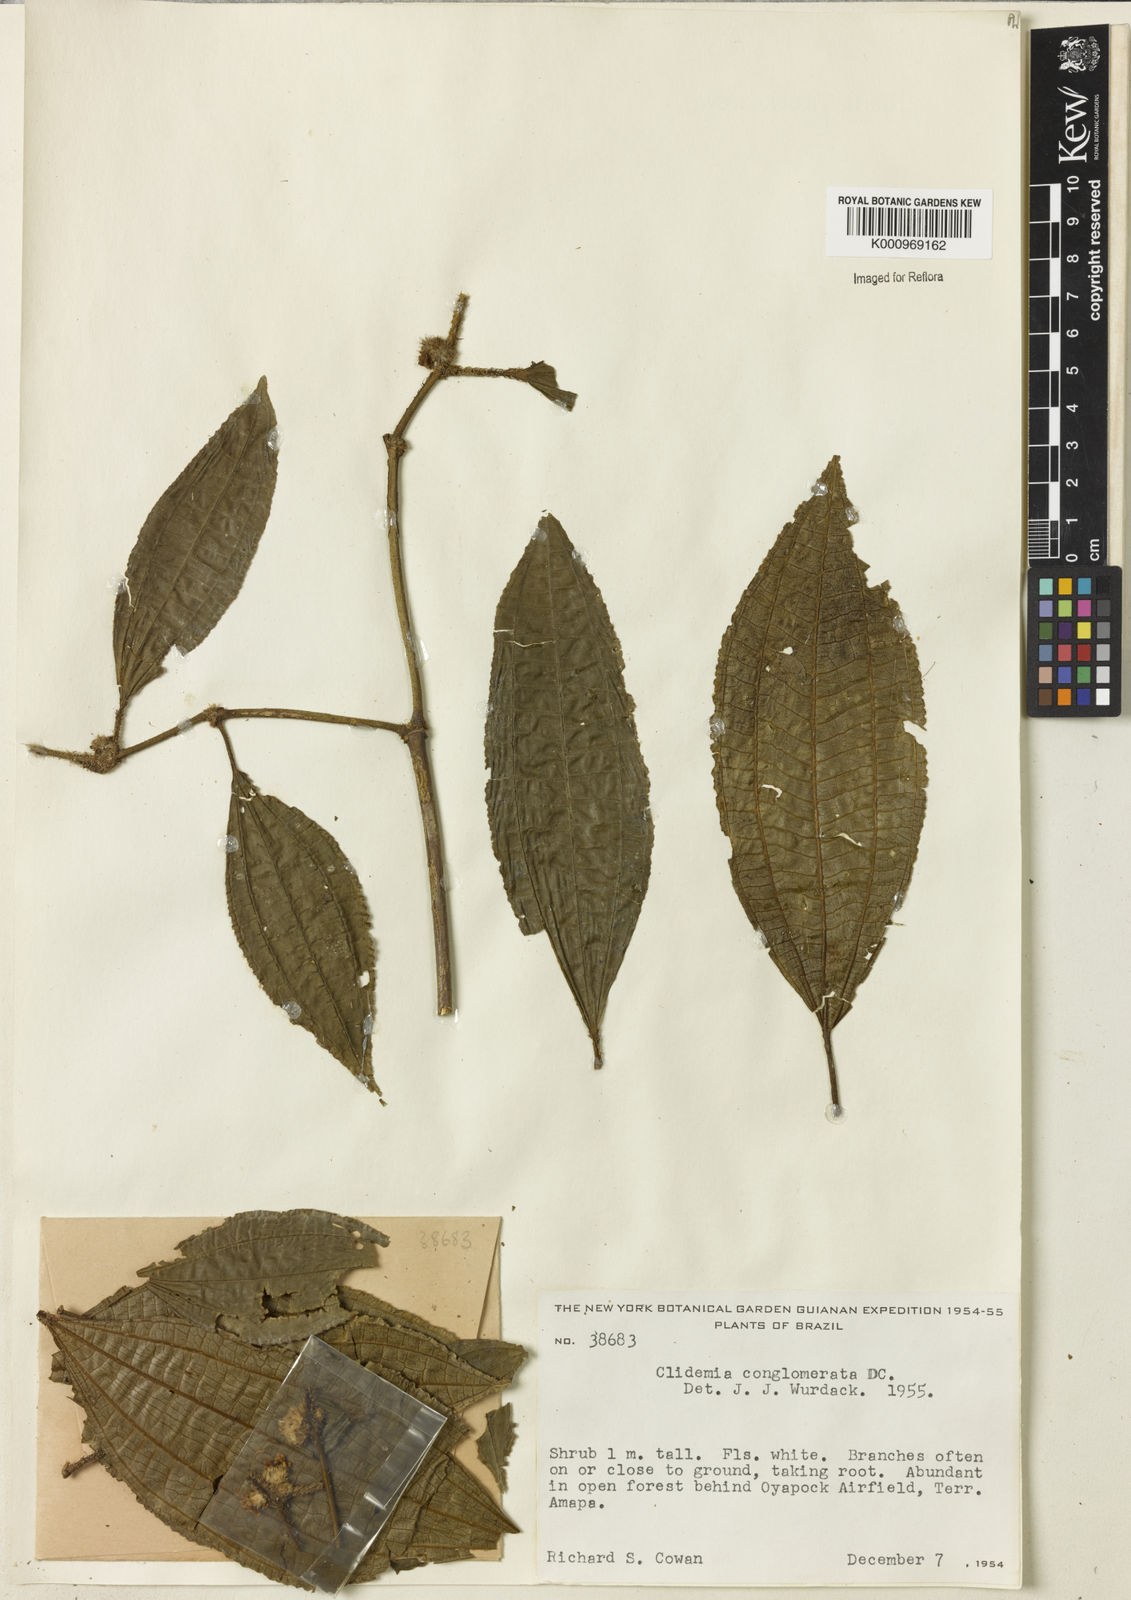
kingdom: Plantae
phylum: Tracheophyta
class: Magnoliopsida
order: Myrtales
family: Melastomataceae
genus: Miconia
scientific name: Miconia conglomerata
